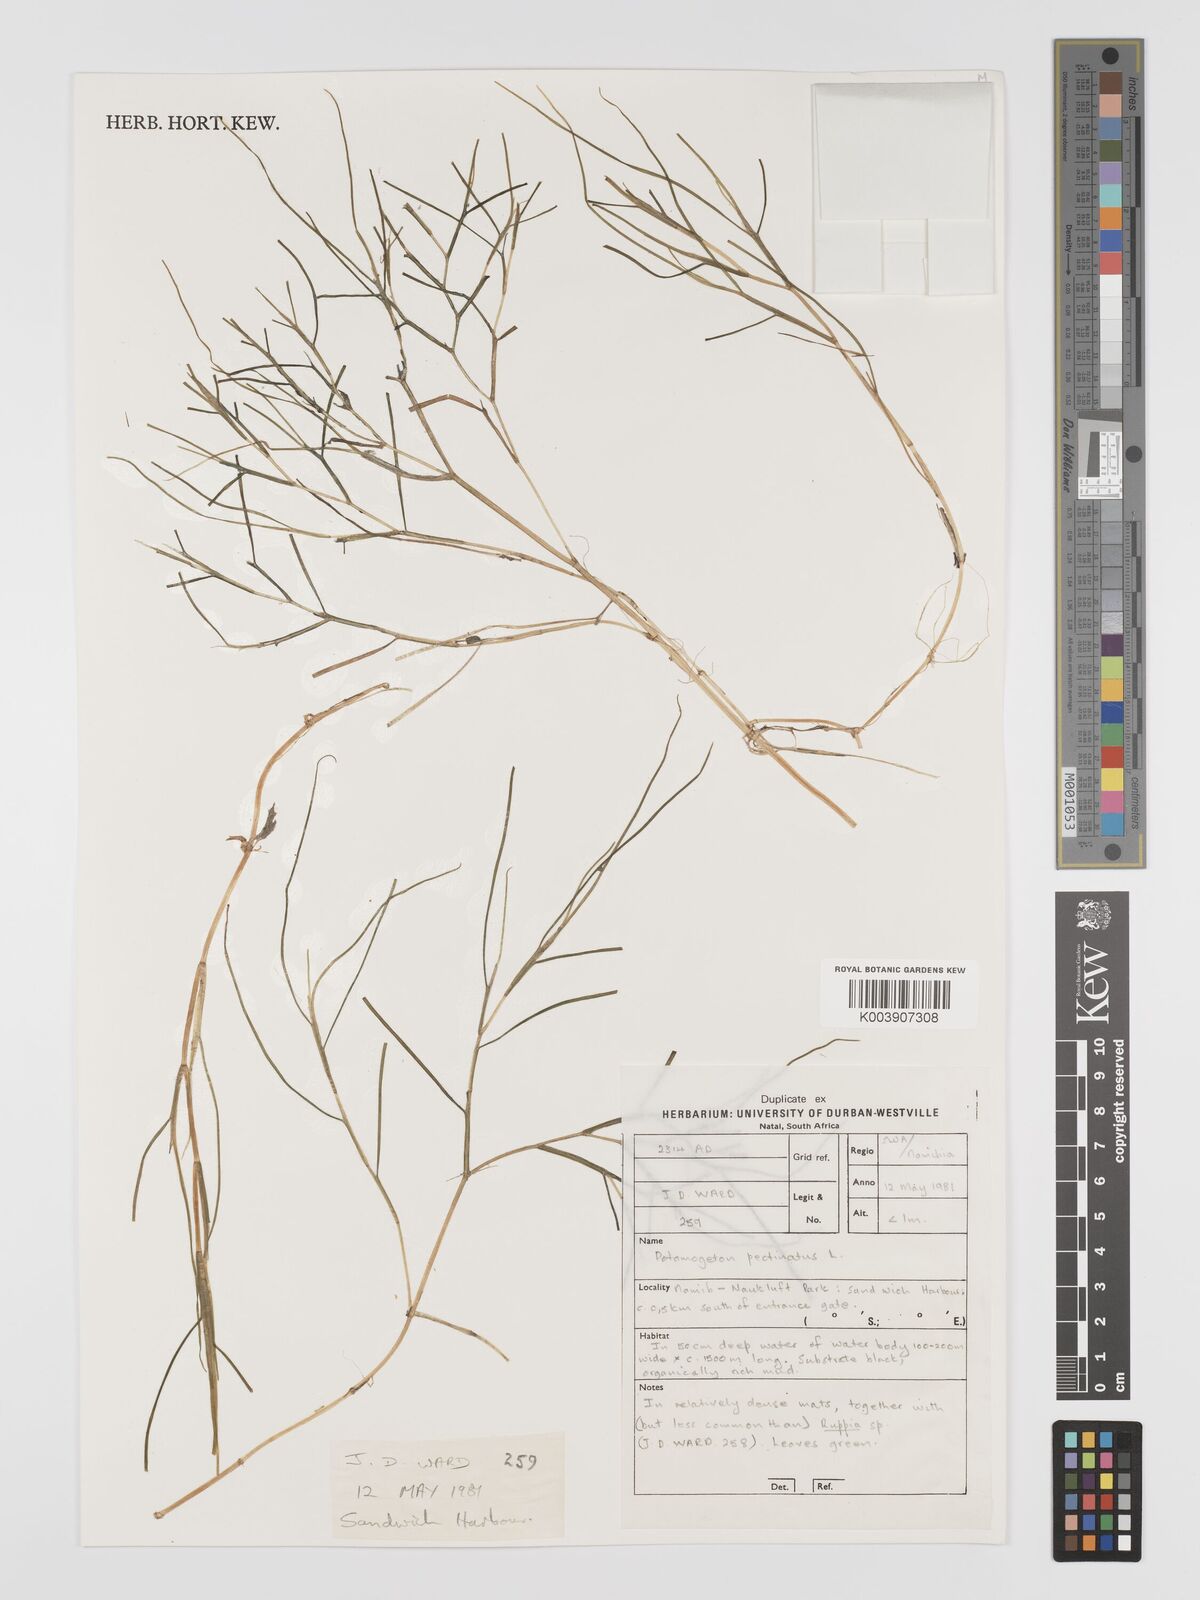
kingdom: Plantae
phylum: Tracheophyta
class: Liliopsida
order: Alismatales
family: Potamogetonaceae
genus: Stuckenia
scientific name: Stuckenia pectinata
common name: Sago pondweed
